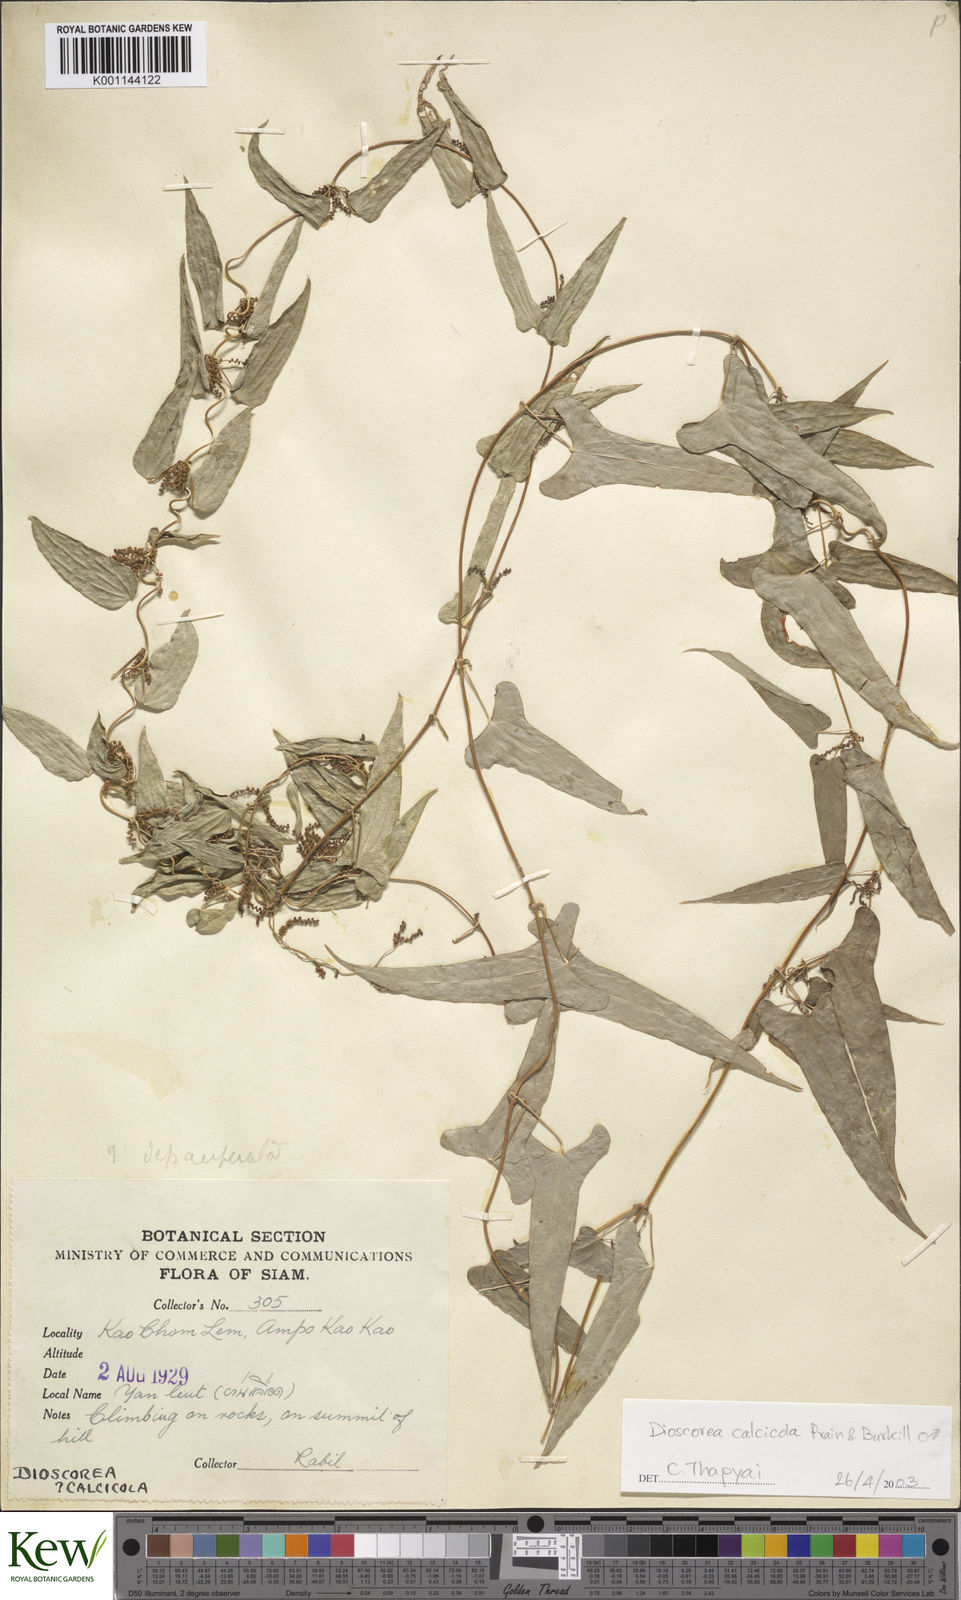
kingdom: Plantae
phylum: Tracheophyta
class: Liliopsida
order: Dioscoreales
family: Dioscoreaceae
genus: Dioscorea
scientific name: Dioscorea calcicola
